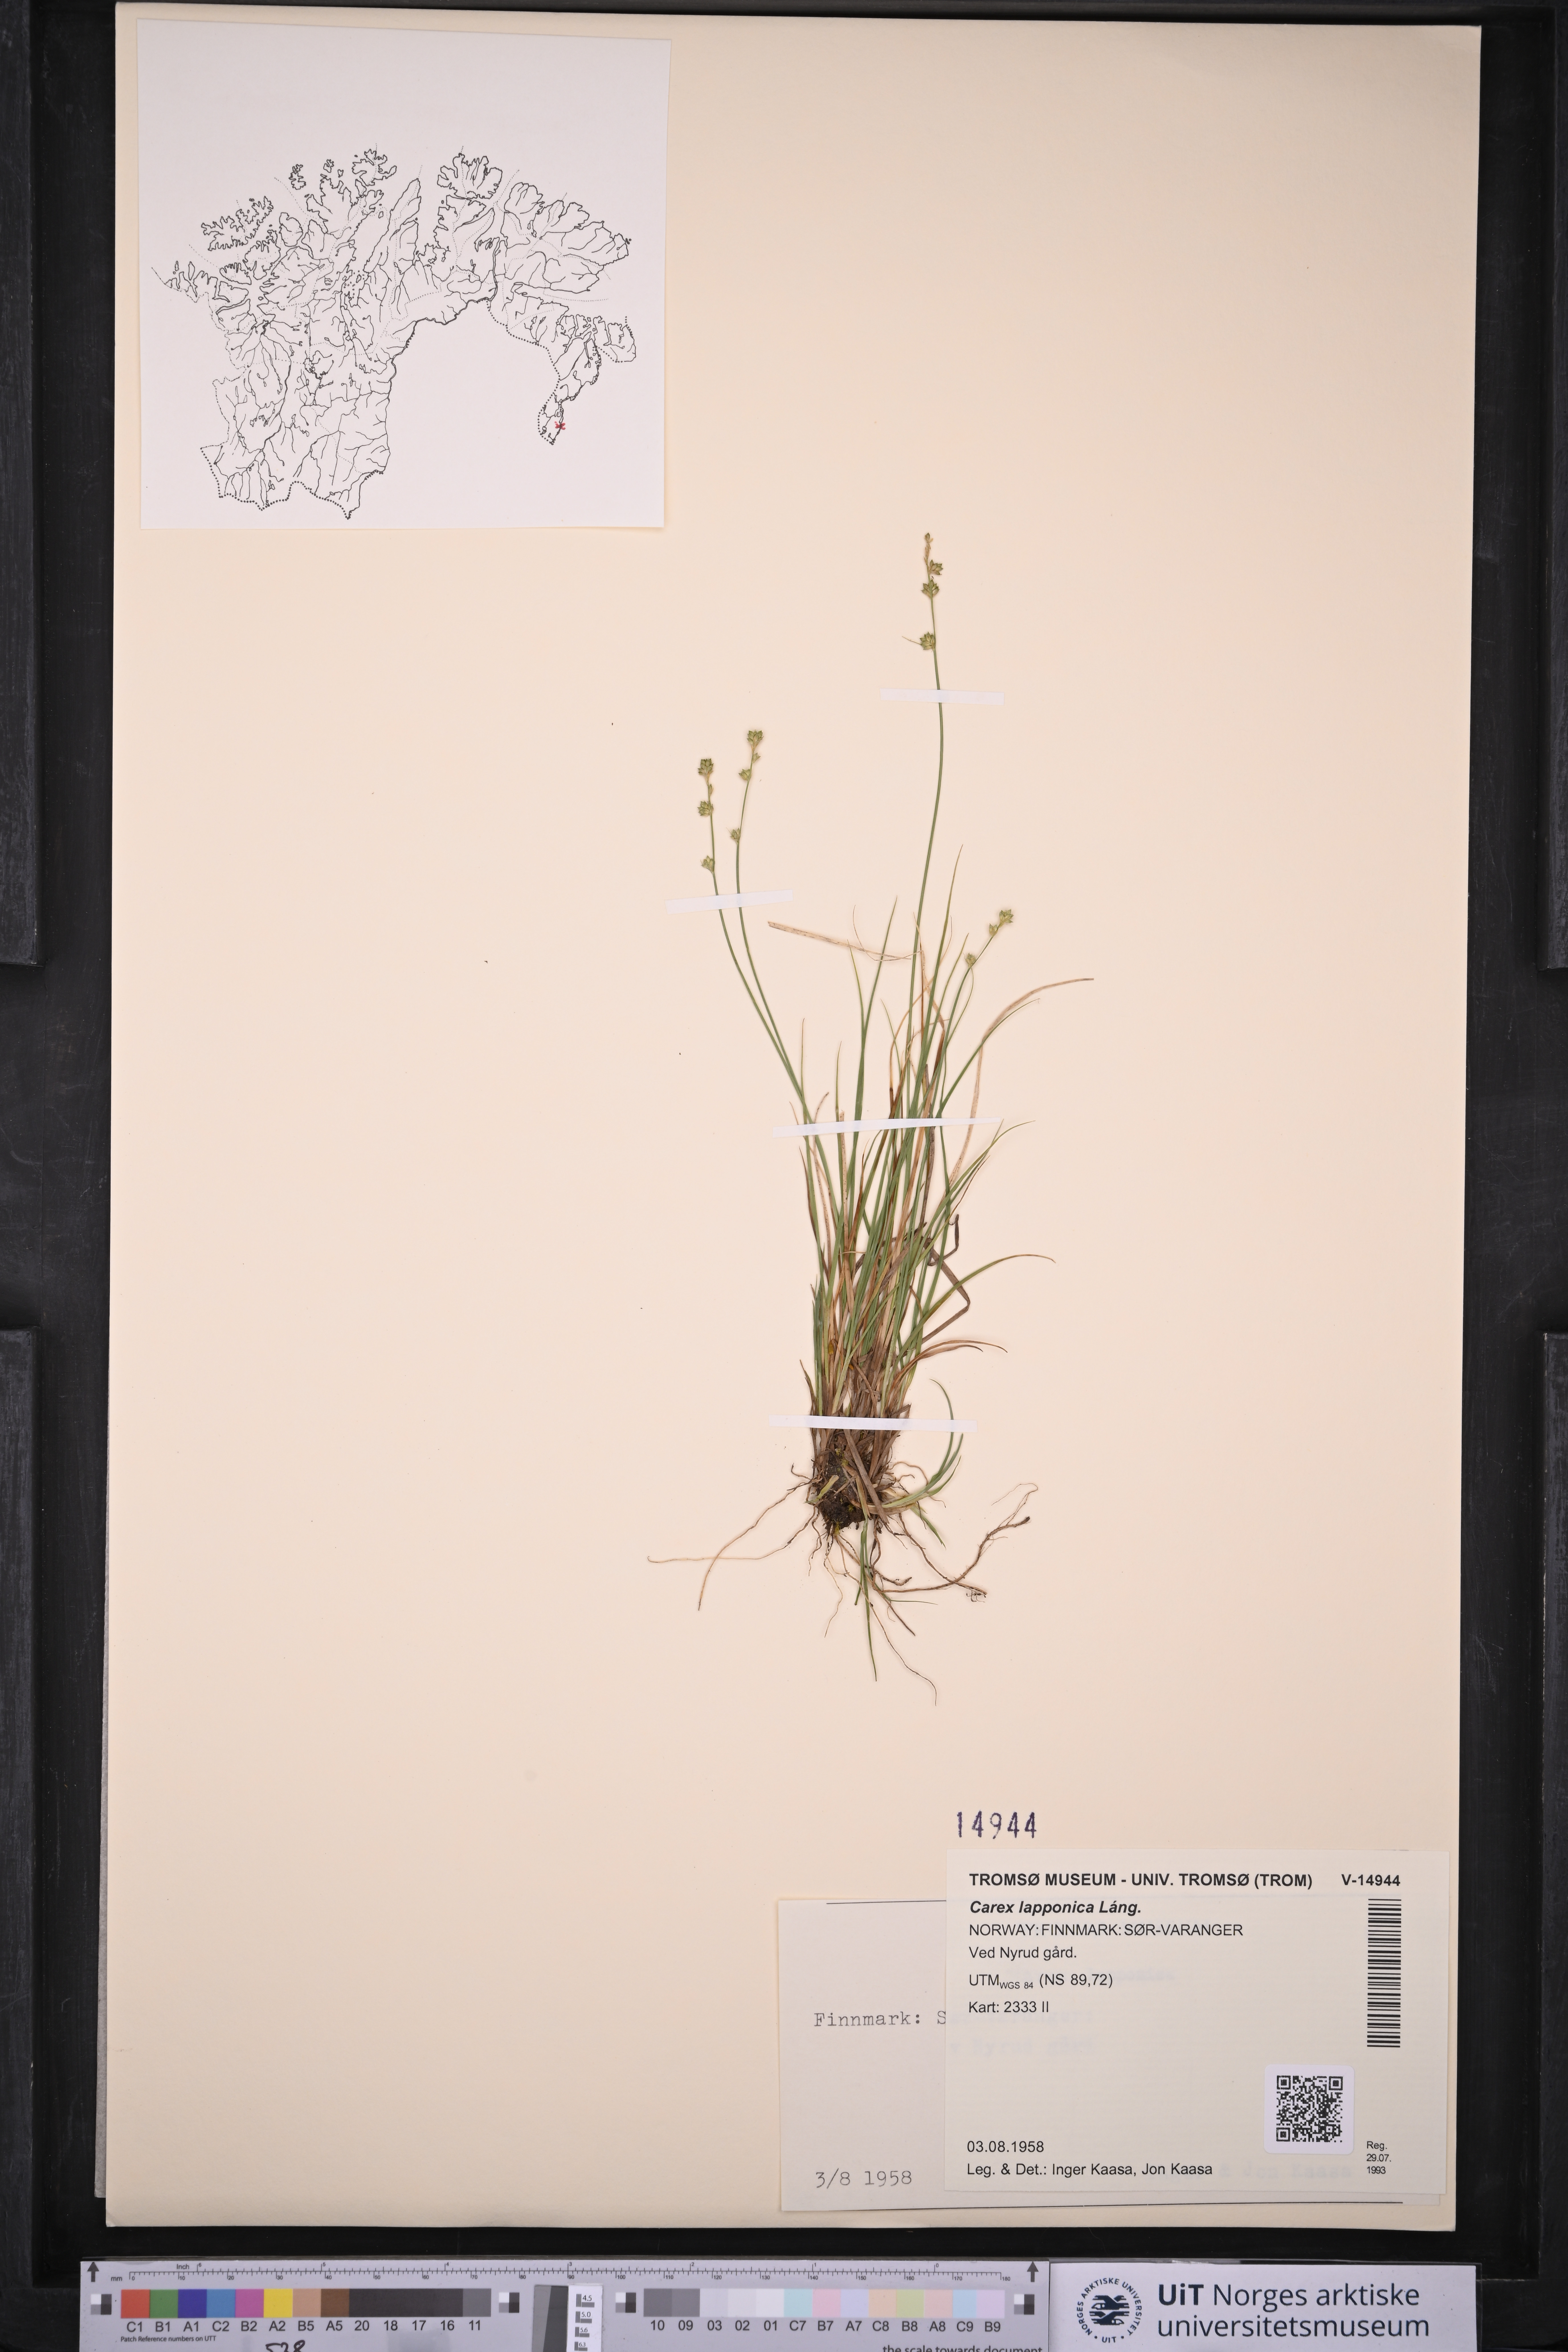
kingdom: Plantae
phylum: Tracheophyta
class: Liliopsida
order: Poales
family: Cyperaceae
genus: Carex
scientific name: Carex lapponica
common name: Lapland sedge
